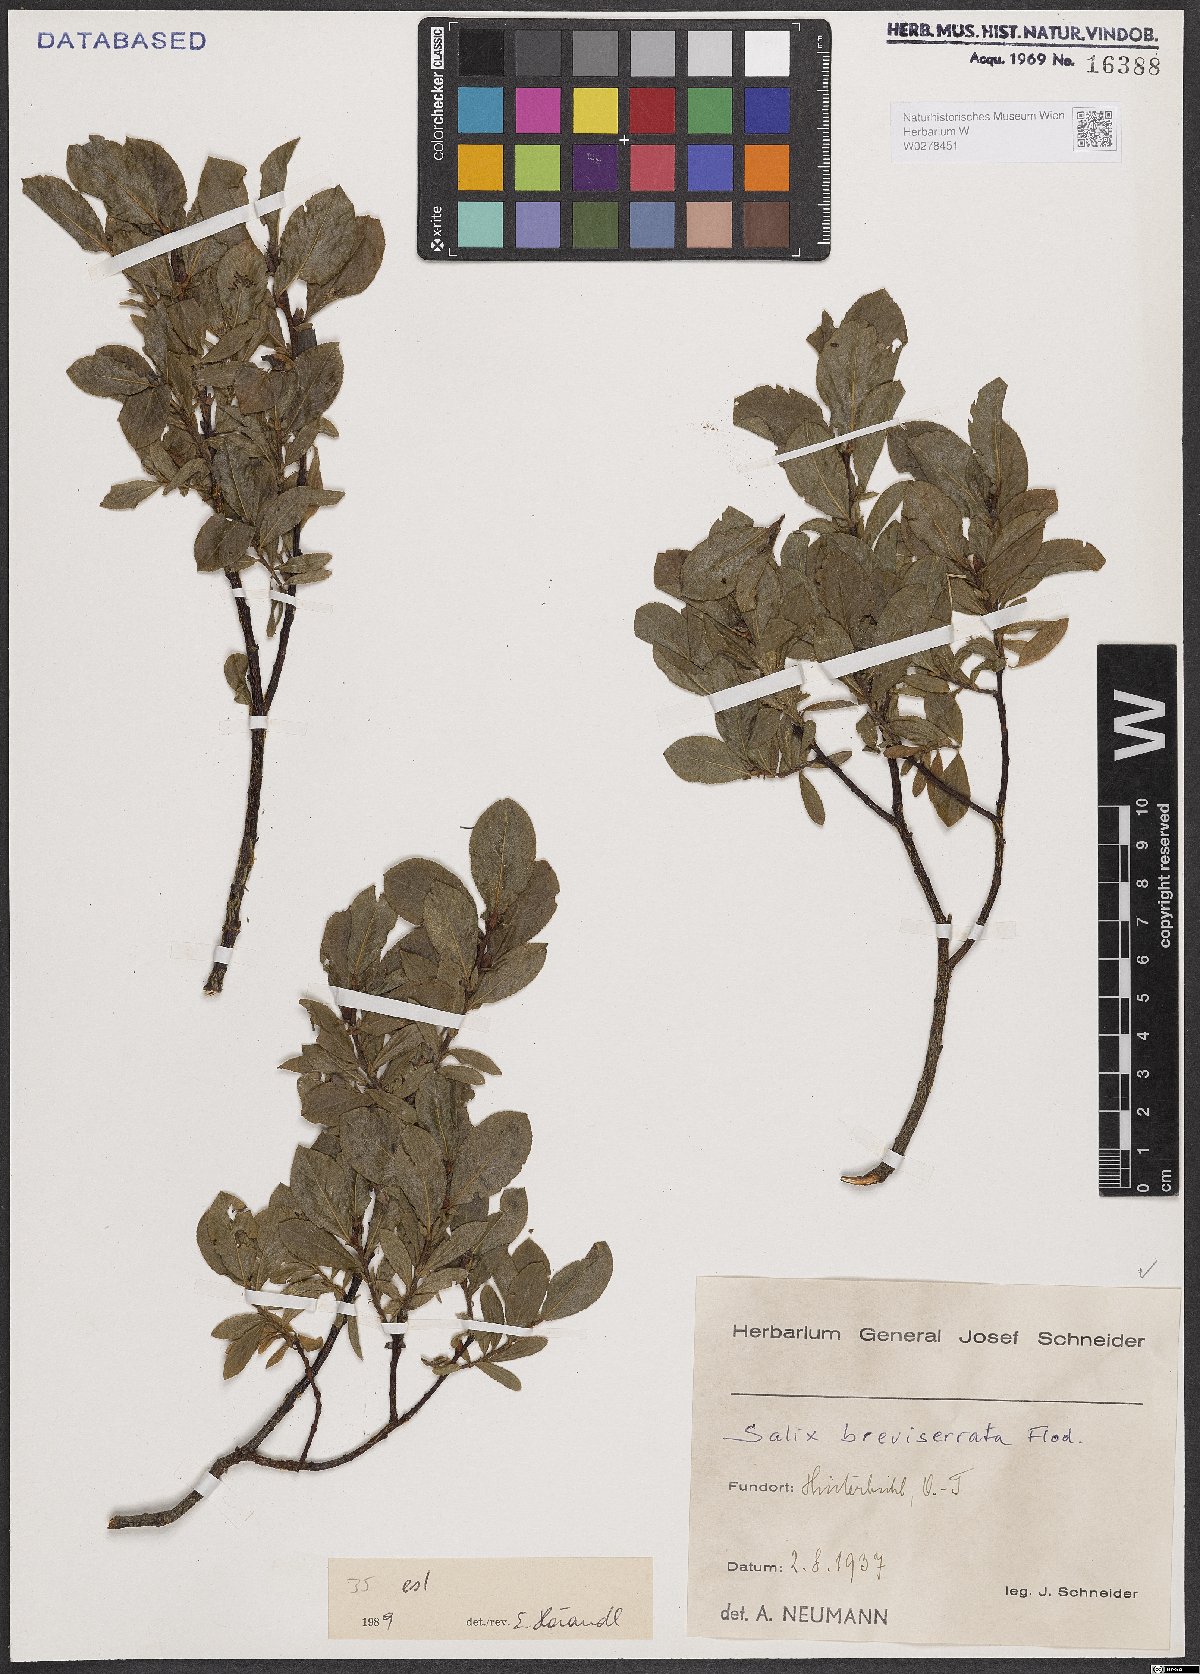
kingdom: Plantae
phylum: Tracheophyta
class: Magnoliopsida
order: Malpighiales
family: Salicaceae
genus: Salix
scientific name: Salix breviserrata
